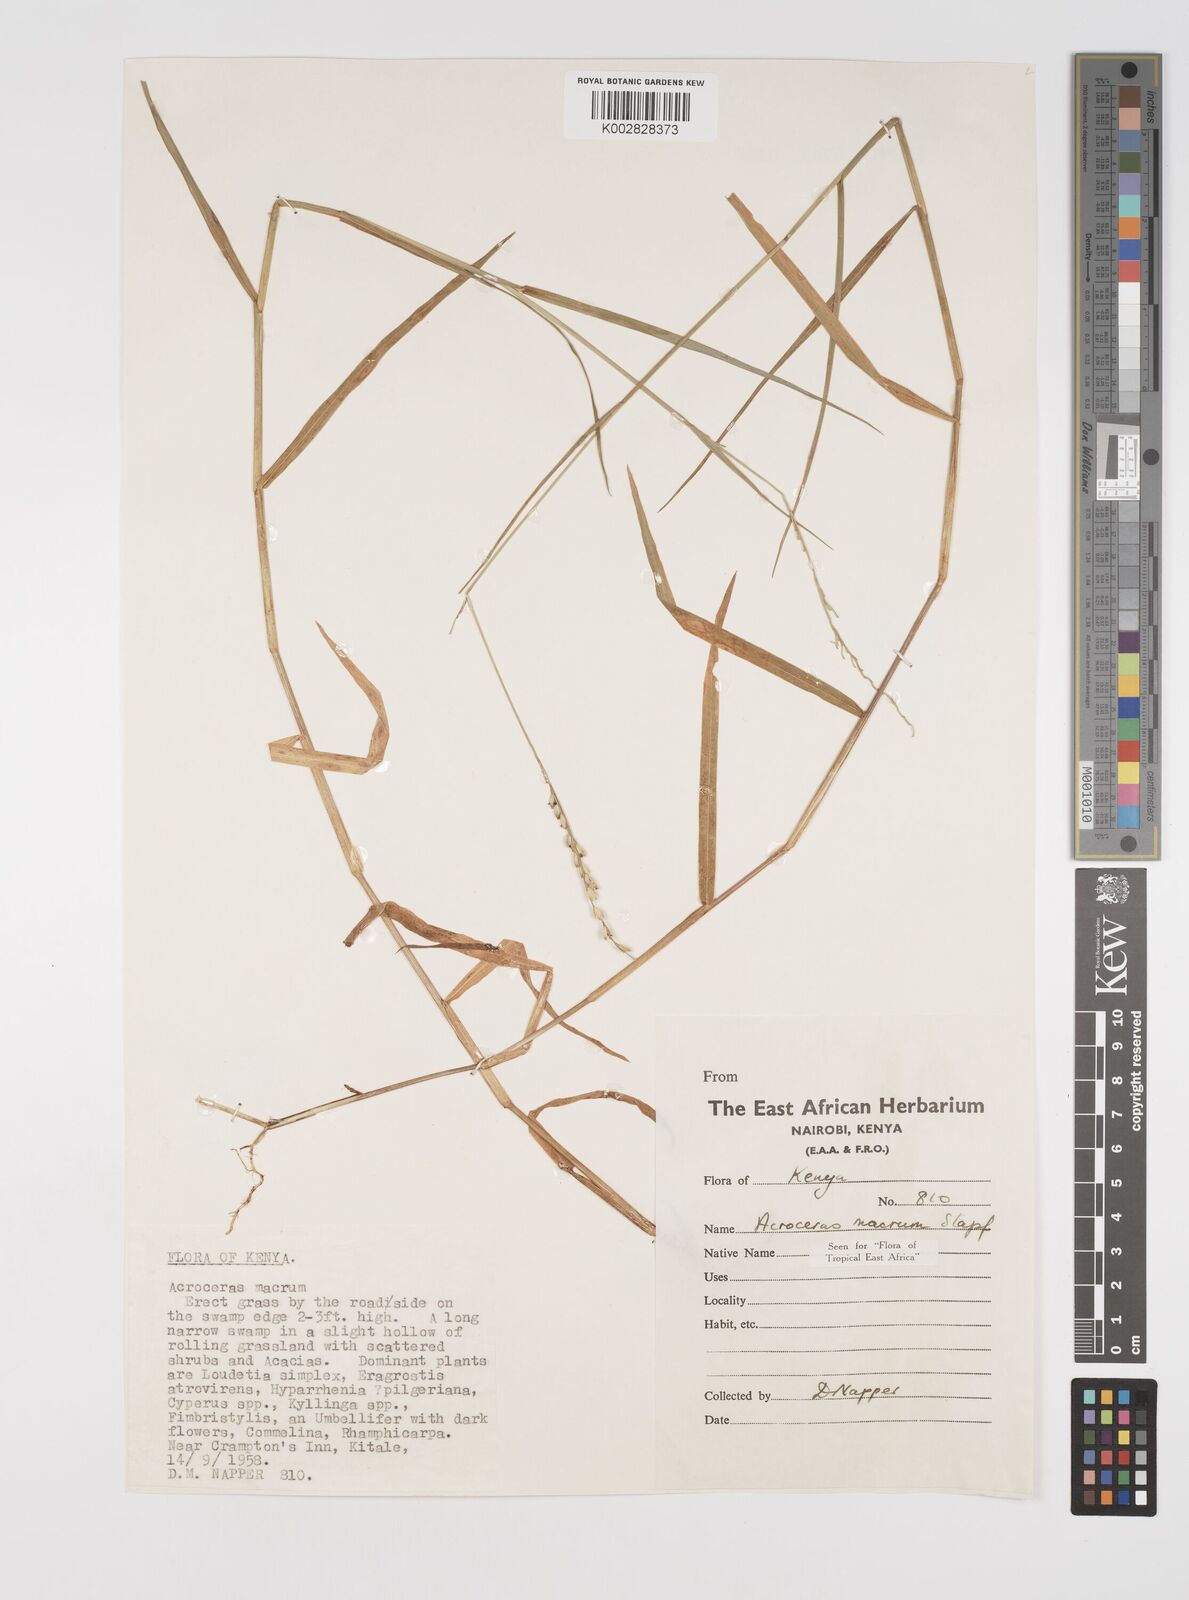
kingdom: Plantae
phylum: Tracheophyta
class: Liliopsida
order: Poales
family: Poaceae
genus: Acroceras
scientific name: Acroceras macrum
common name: Nyl grass
